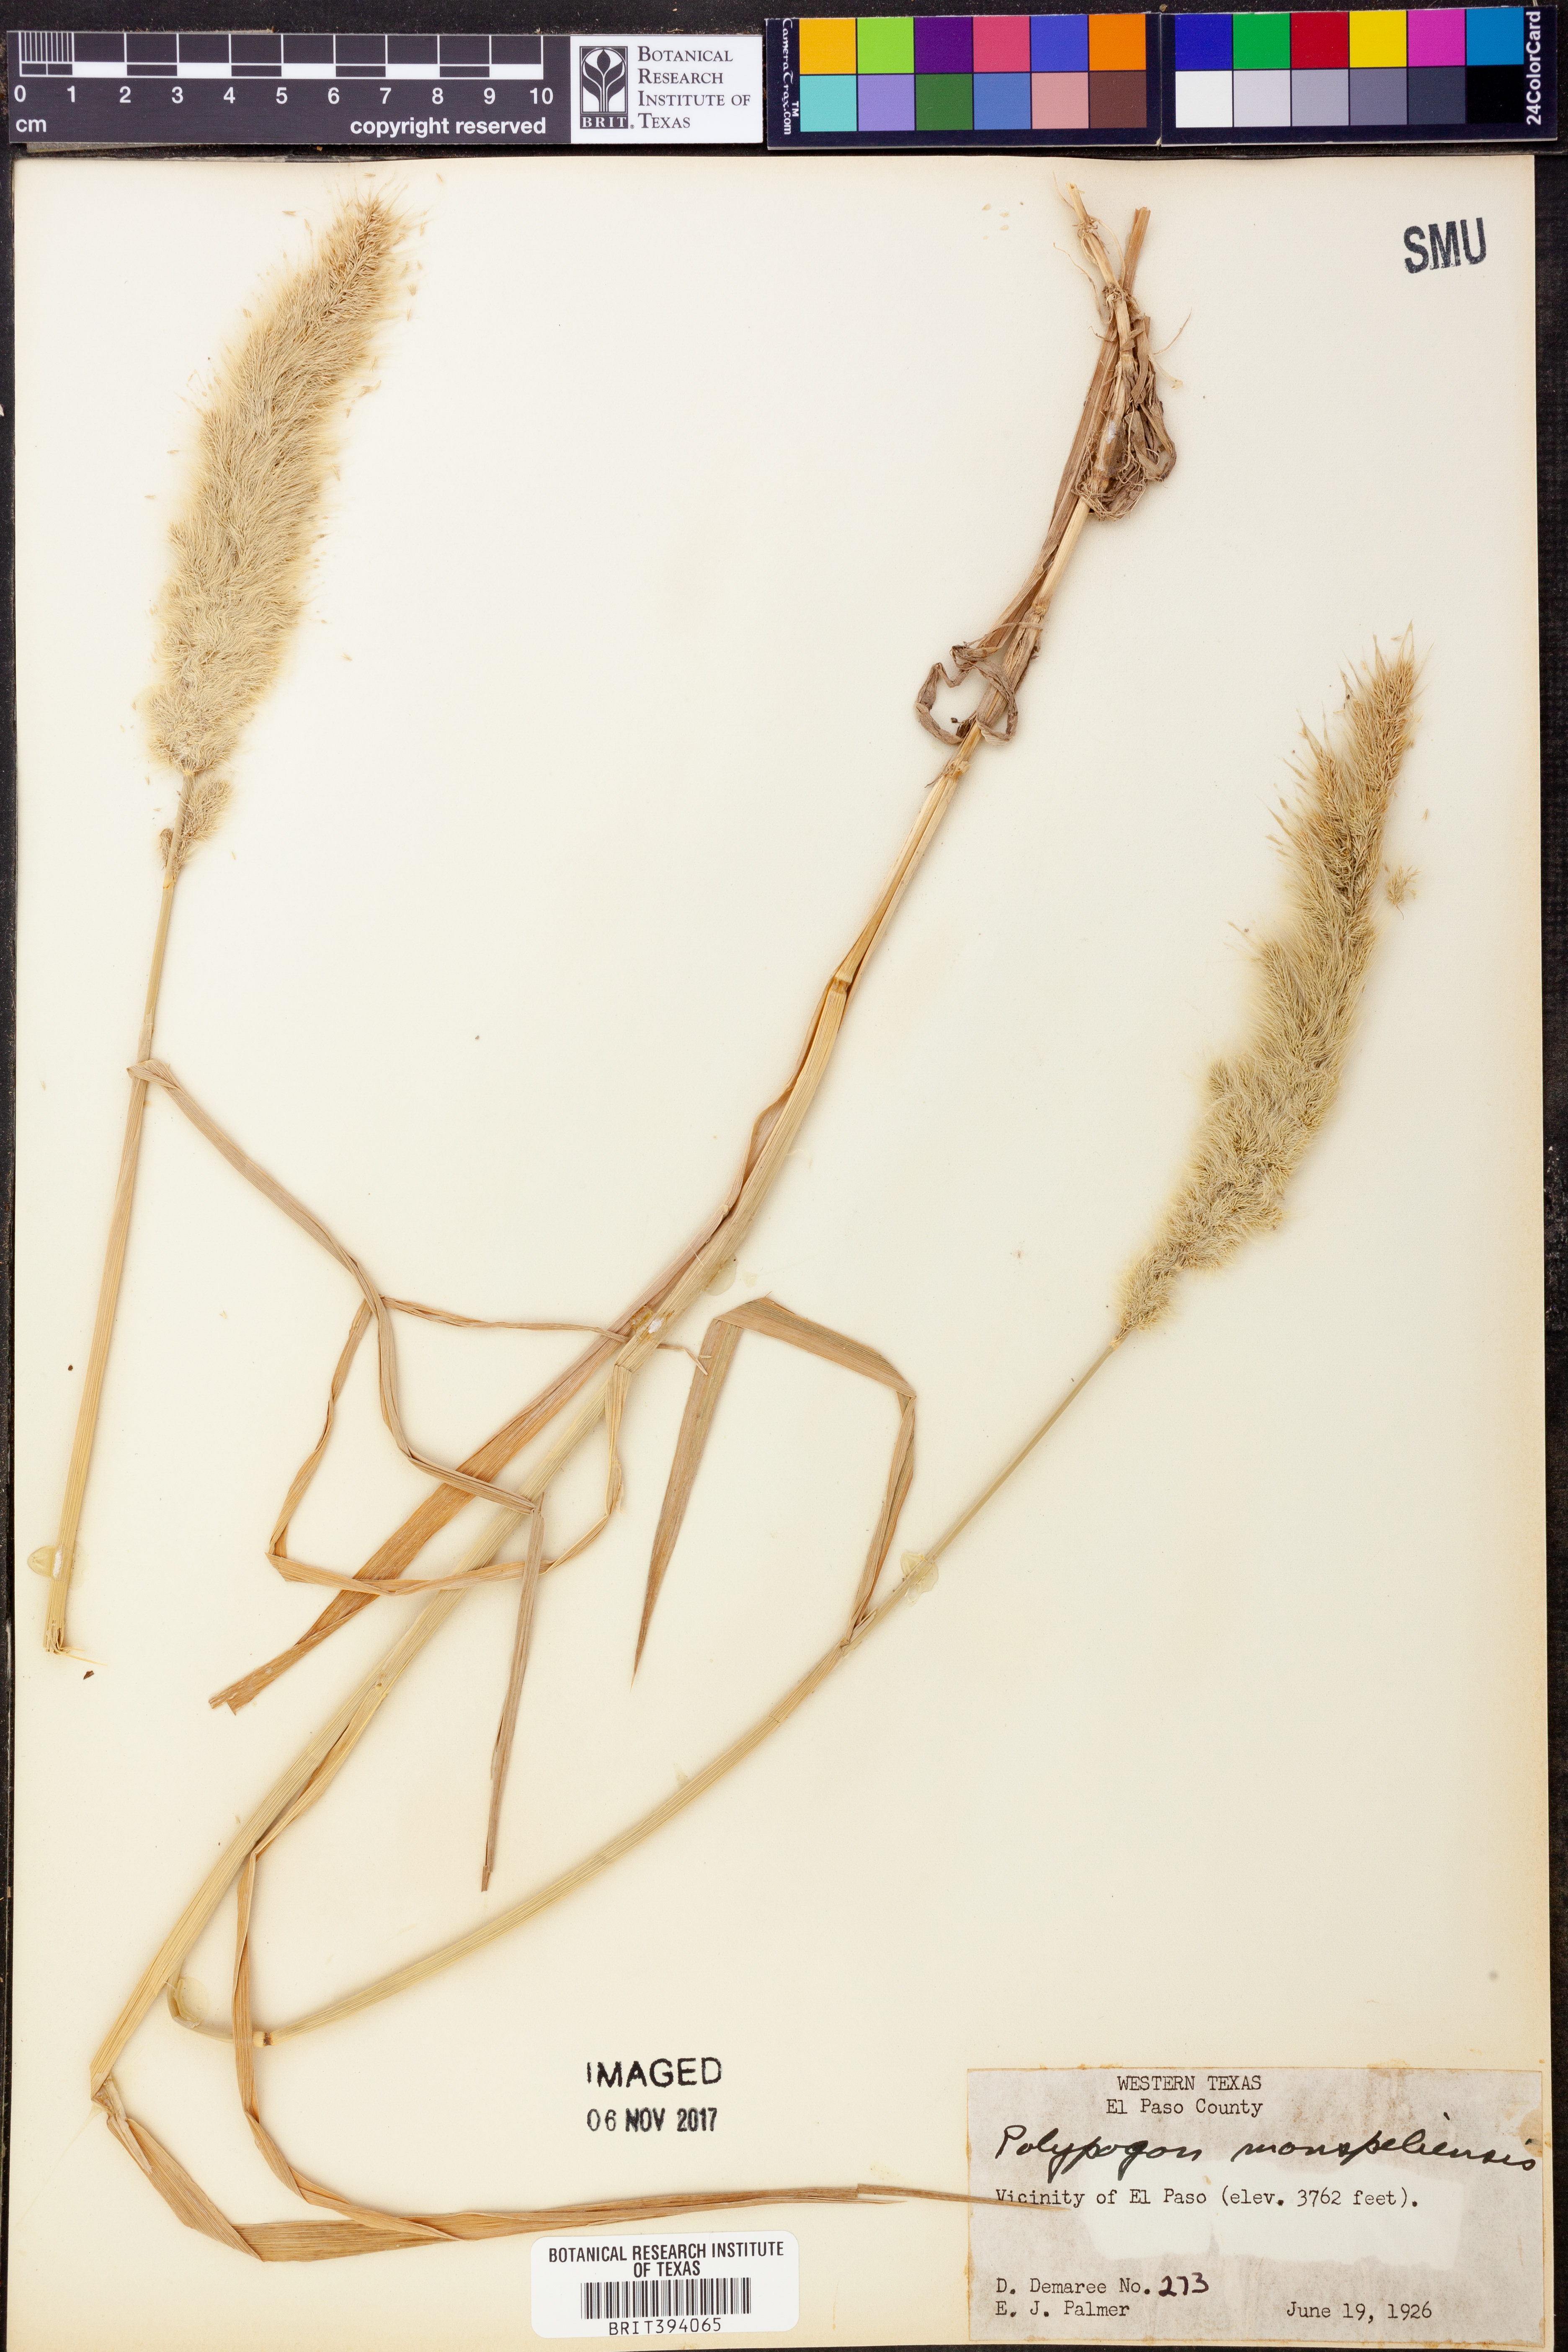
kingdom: Plantae
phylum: Tracheophyta
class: Liliopsida
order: Poales
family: Poaceae
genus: Polypogon
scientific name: Polypogon monspeliensis
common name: Annual rabbitsfoot grass
